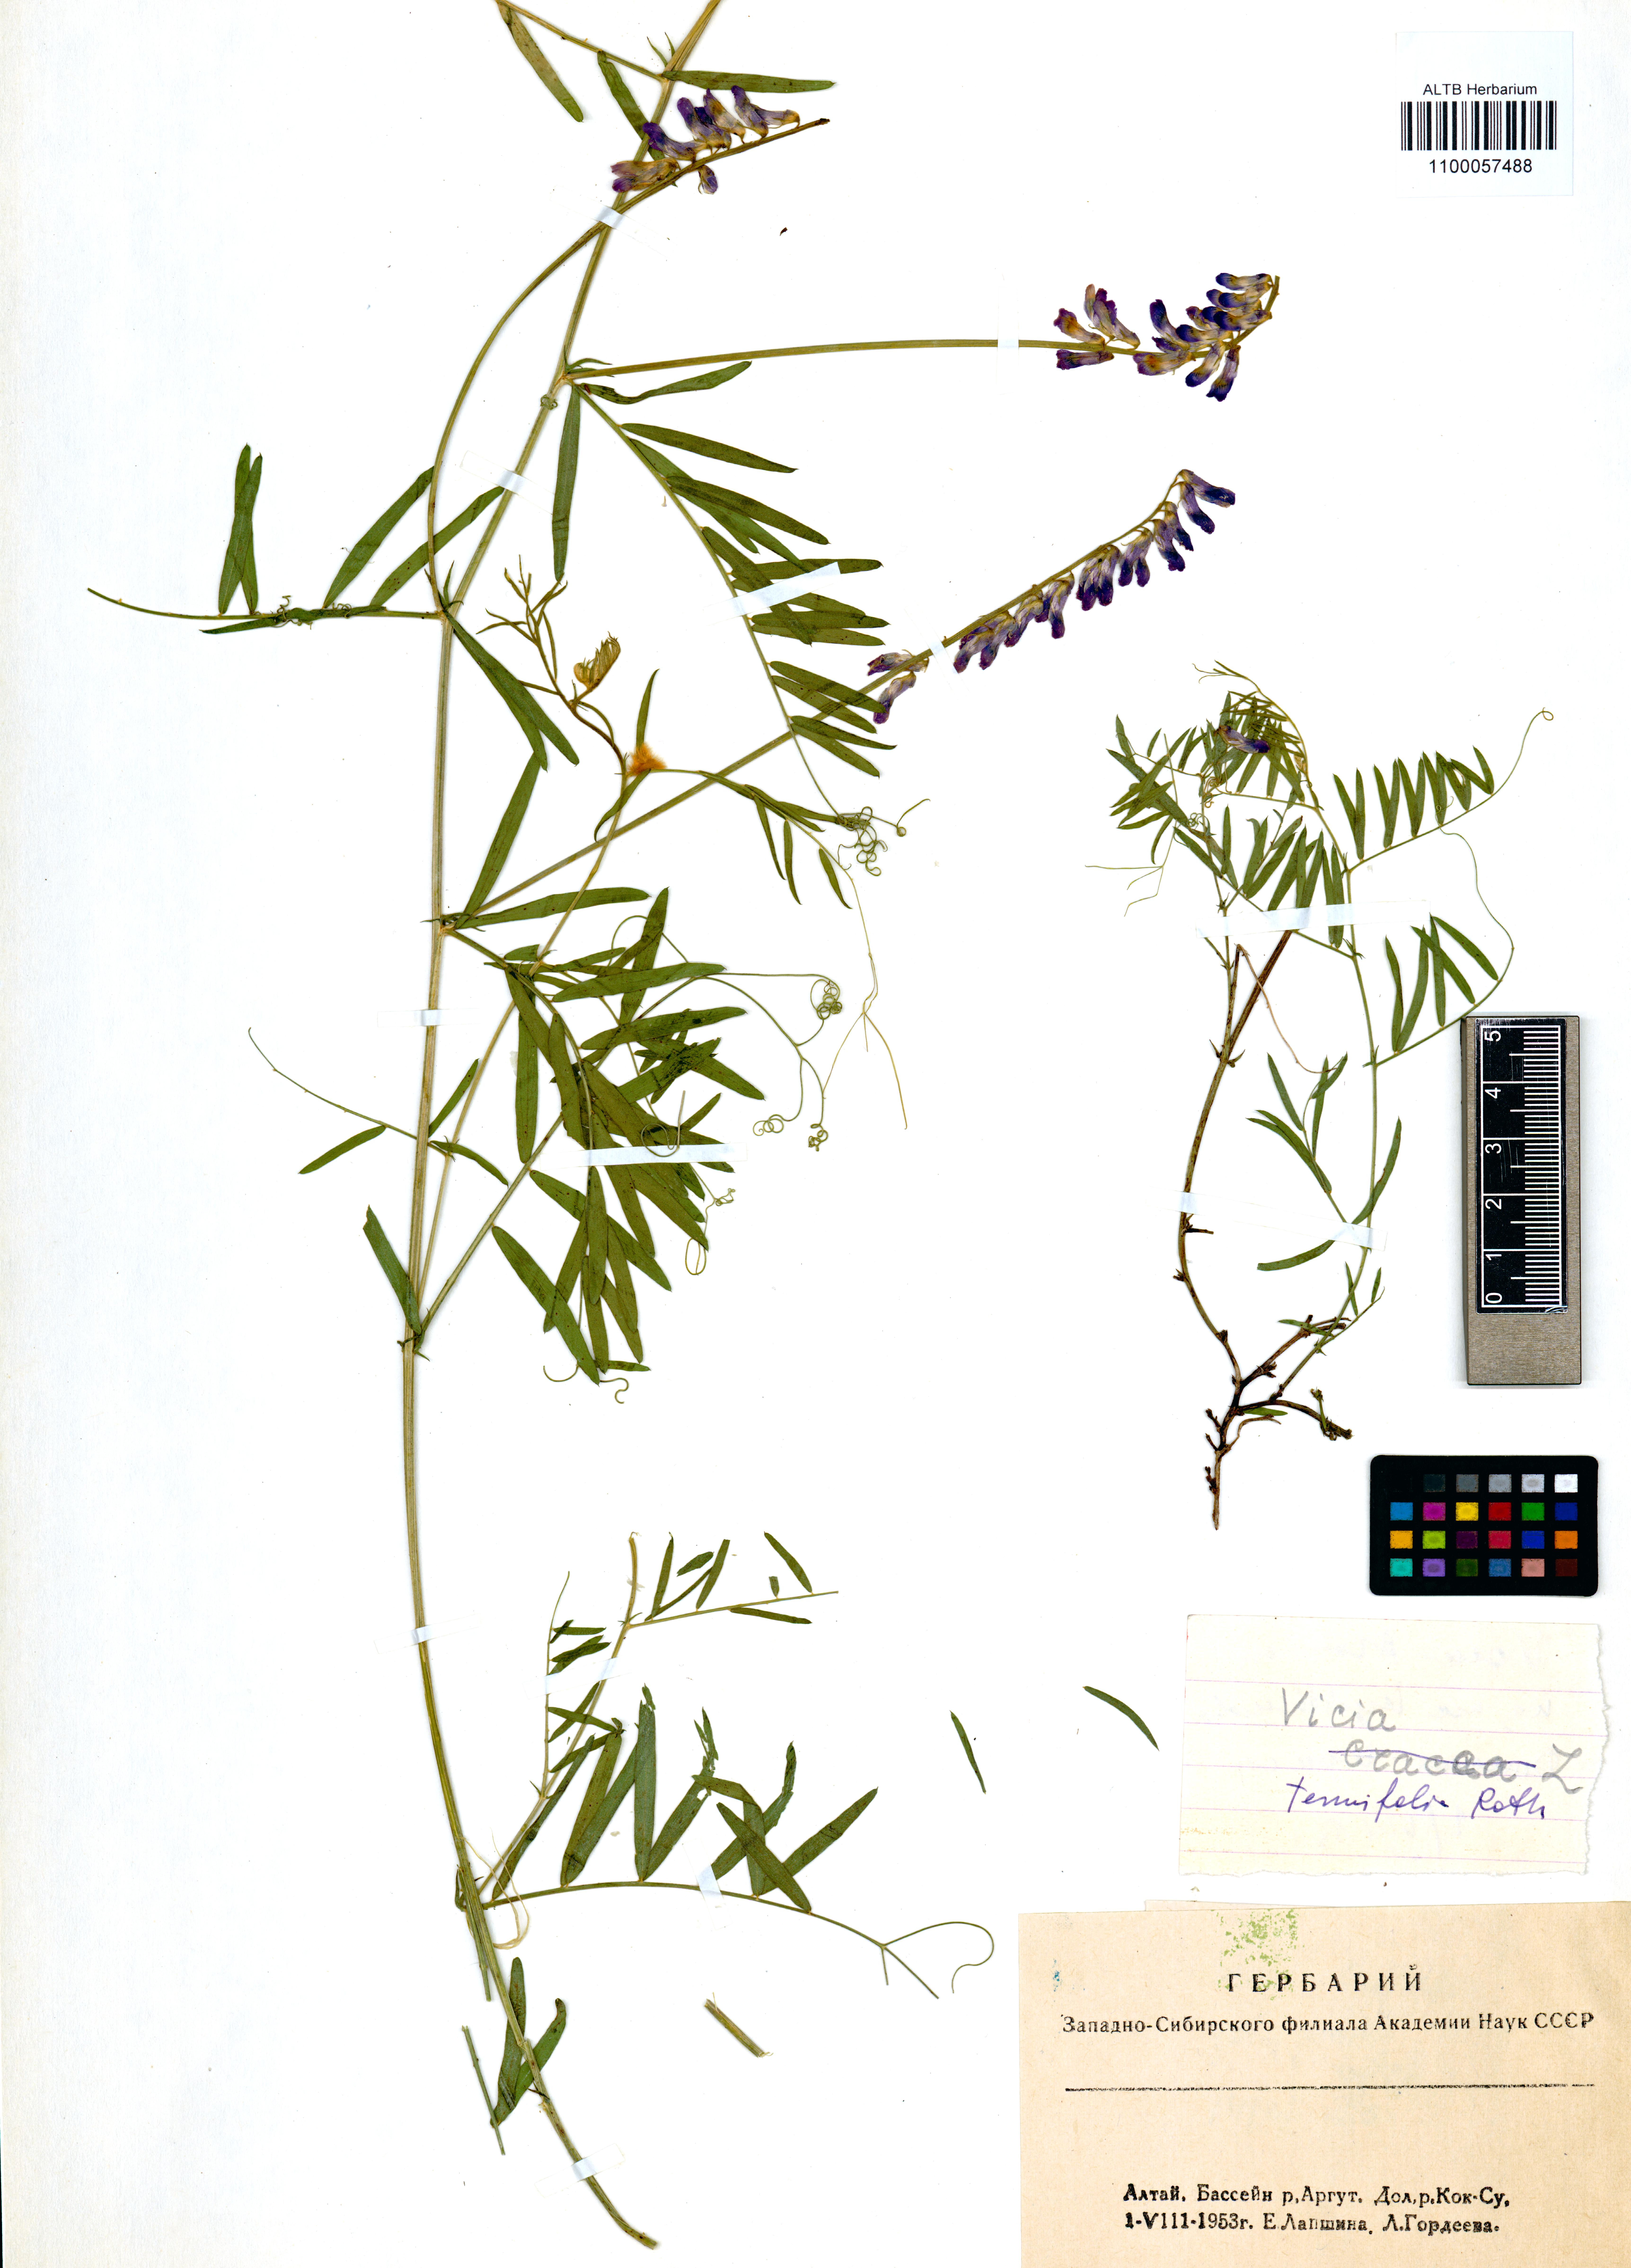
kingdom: Plantae
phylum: Tracheophyta
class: Magnoliopsida
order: Fabales
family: Fabaceae
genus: Vicia
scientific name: Vicia tenuifolia
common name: Fine-leaved vetch
